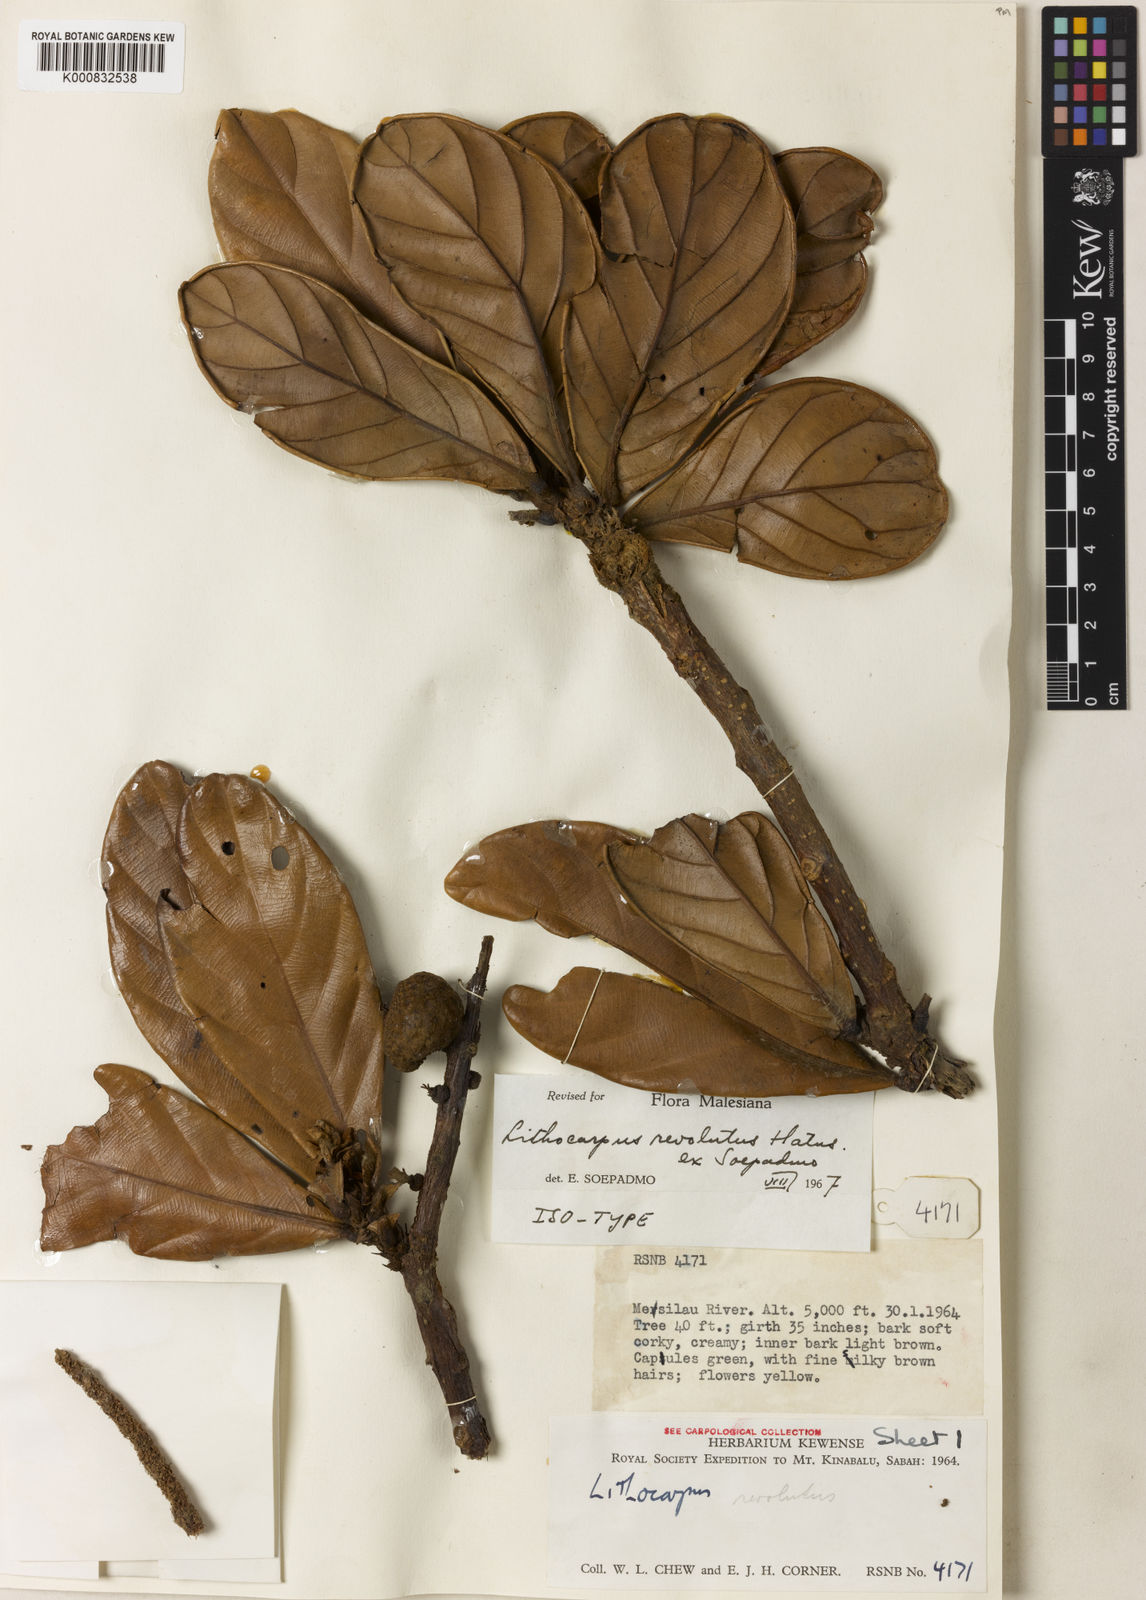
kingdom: Plantae
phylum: Tracheophyta
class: Magnoliopsida
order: Fagales
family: Fagaceae
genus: Lithocarpus
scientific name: Lithocarpus revolutus
